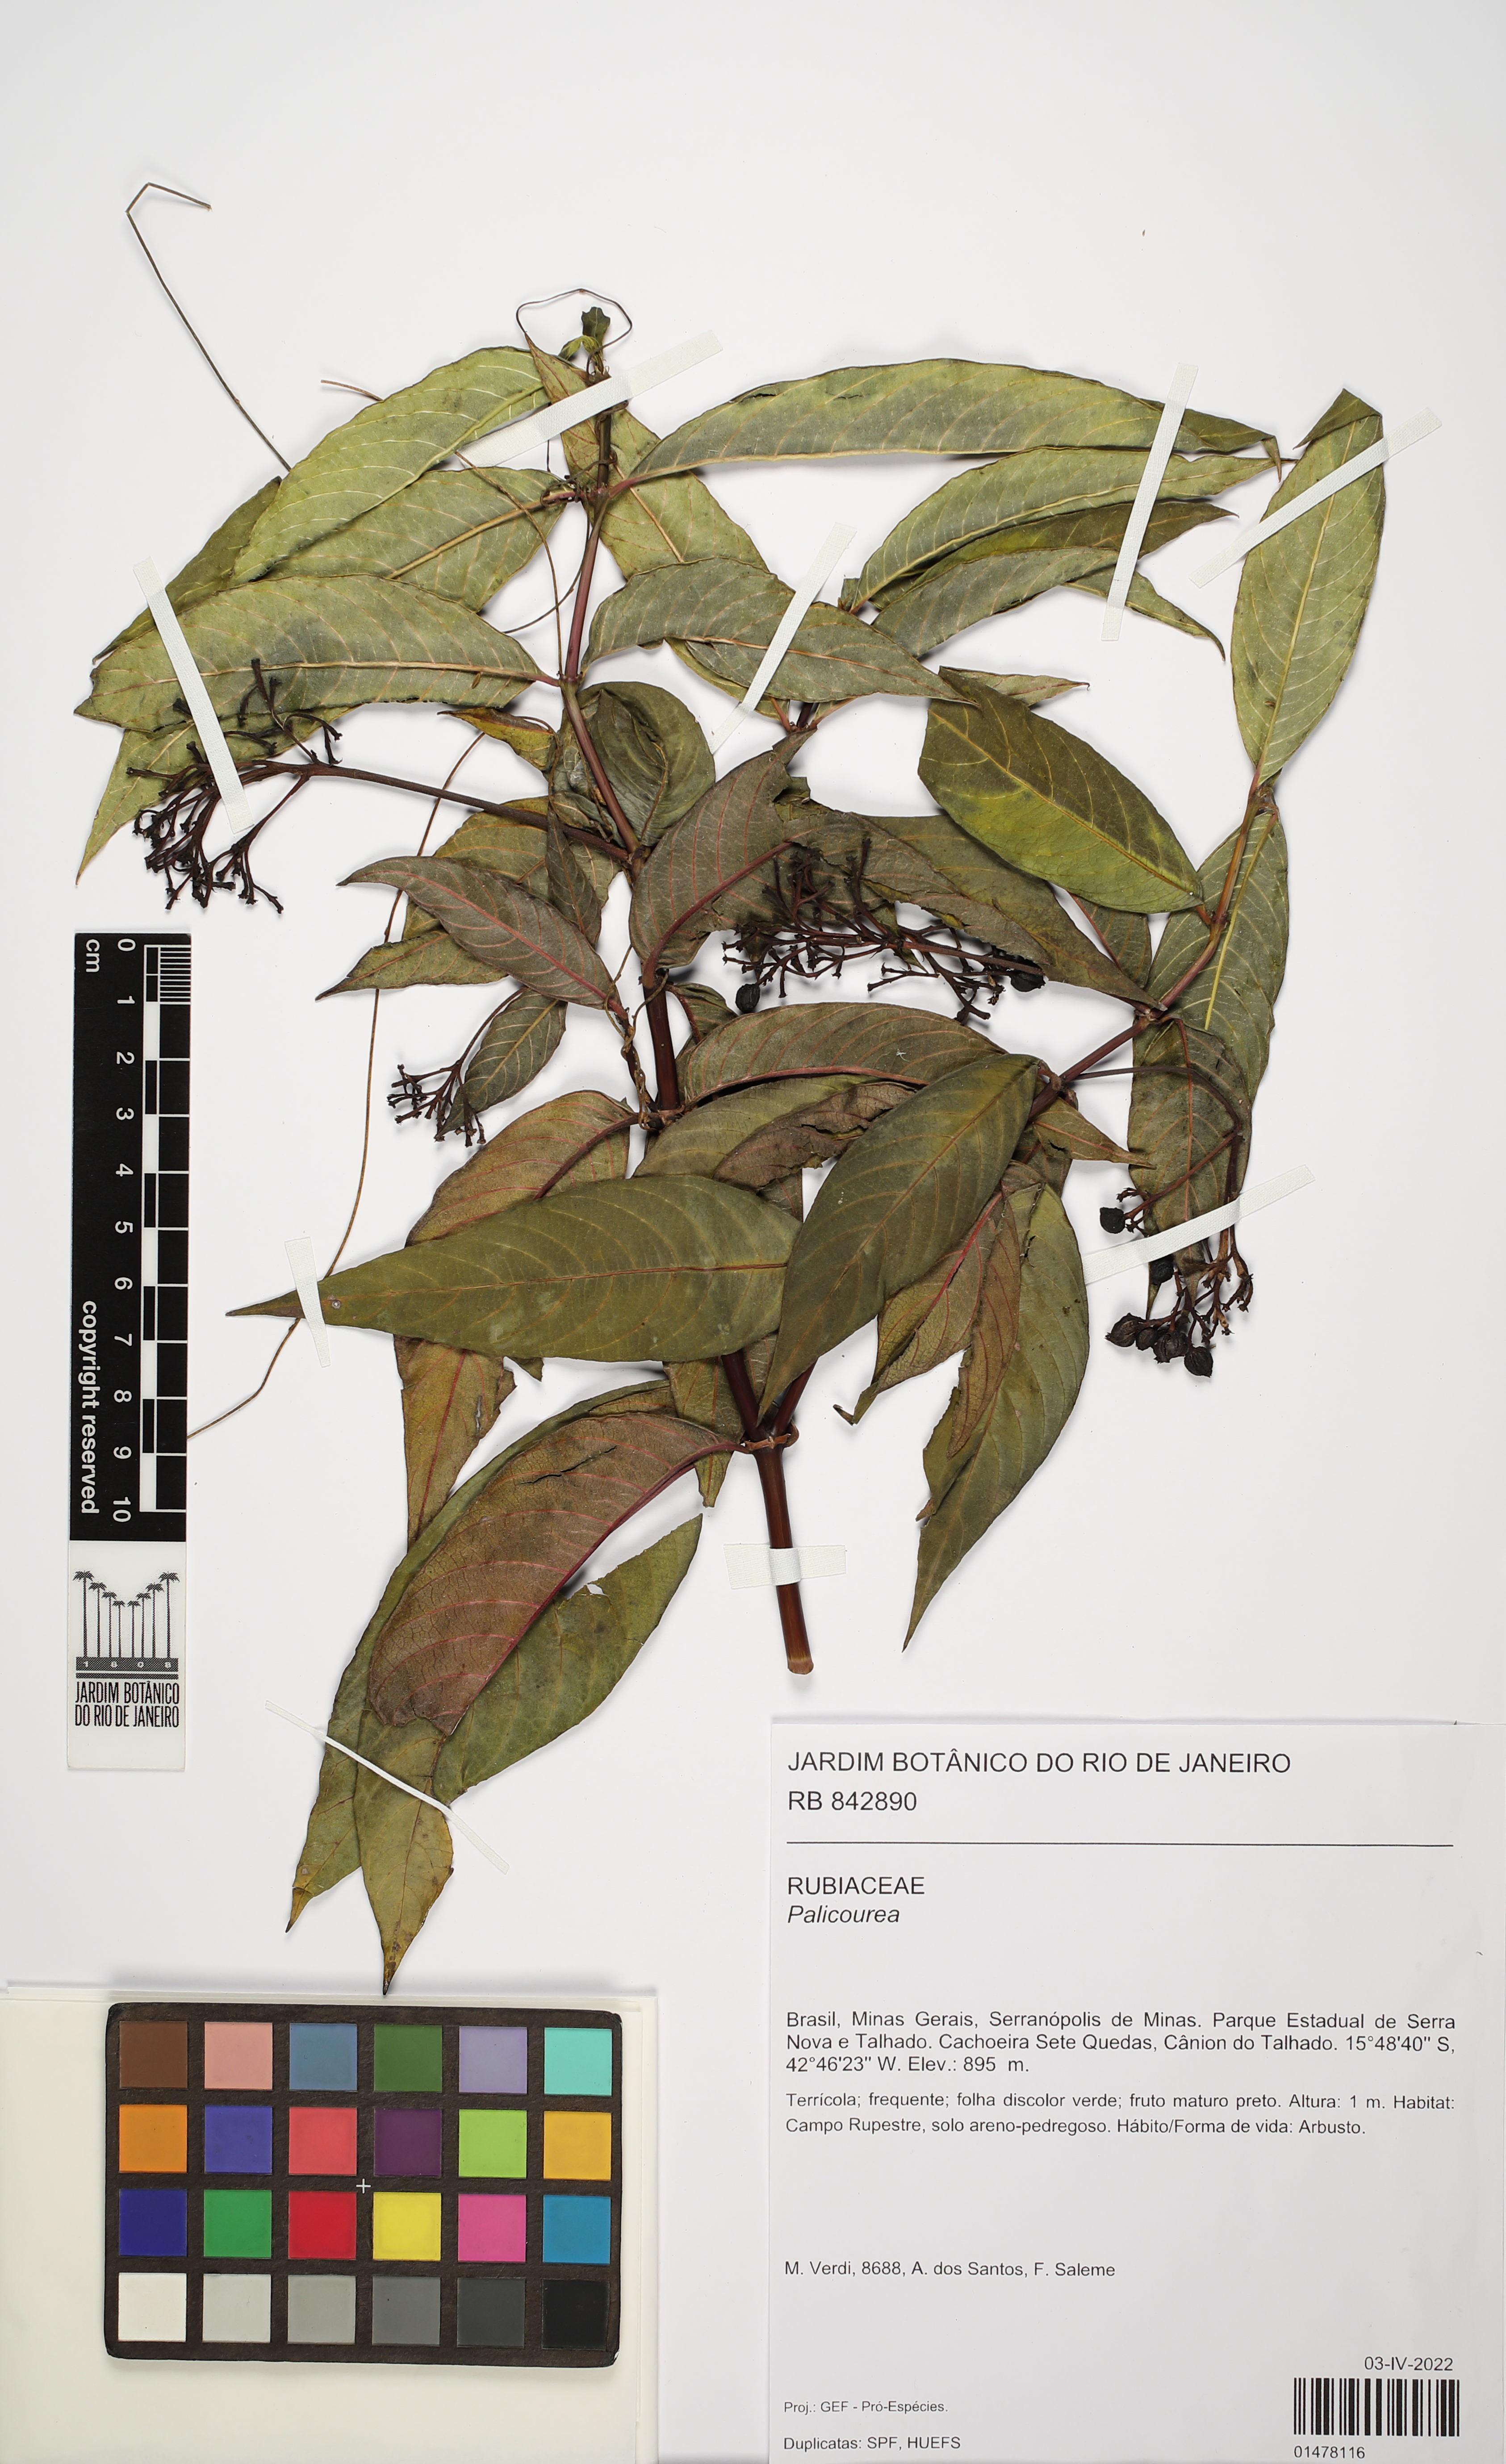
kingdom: Plantae
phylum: Tracheophyta
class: Magnoliopsida
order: Gentianales
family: Rubiaceae
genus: Palicourea
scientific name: Palicourea
